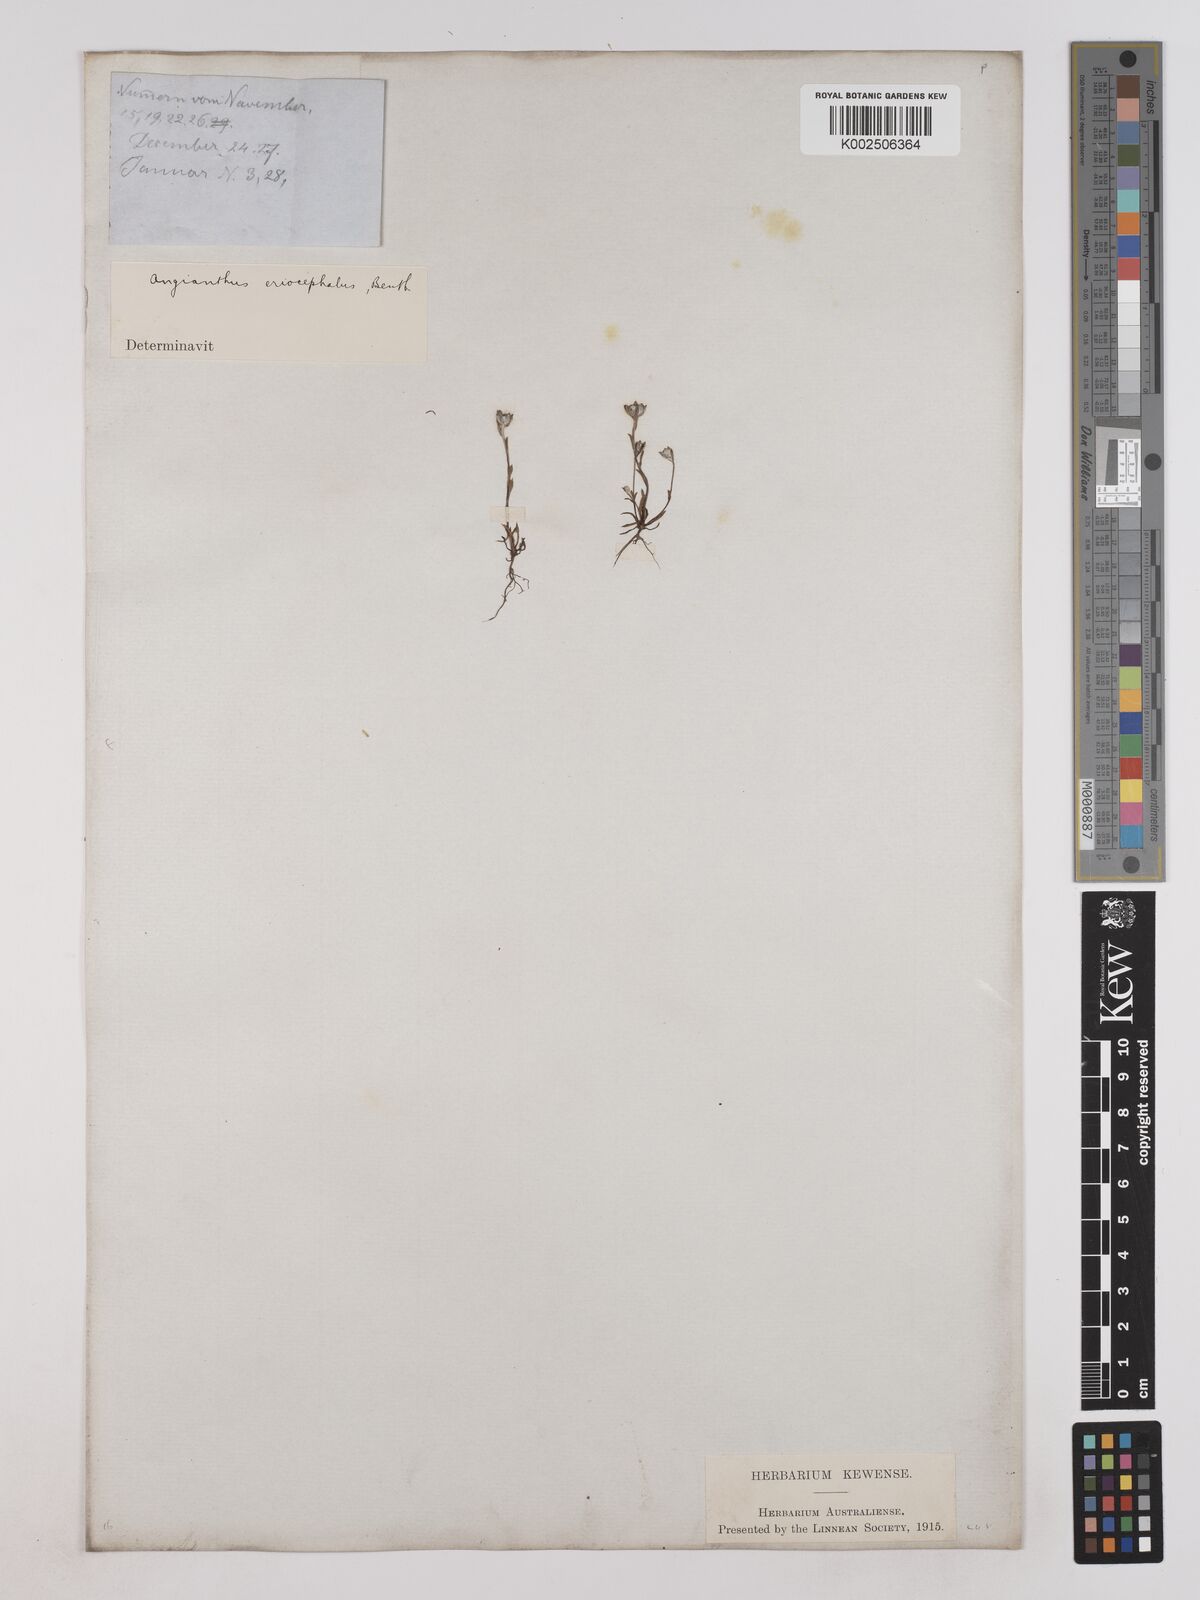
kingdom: Plantae
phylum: Tracheophyta
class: Magnoliopsida
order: Asterales
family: Asteraceae
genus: Angianthus
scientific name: Angianthus preissianus
